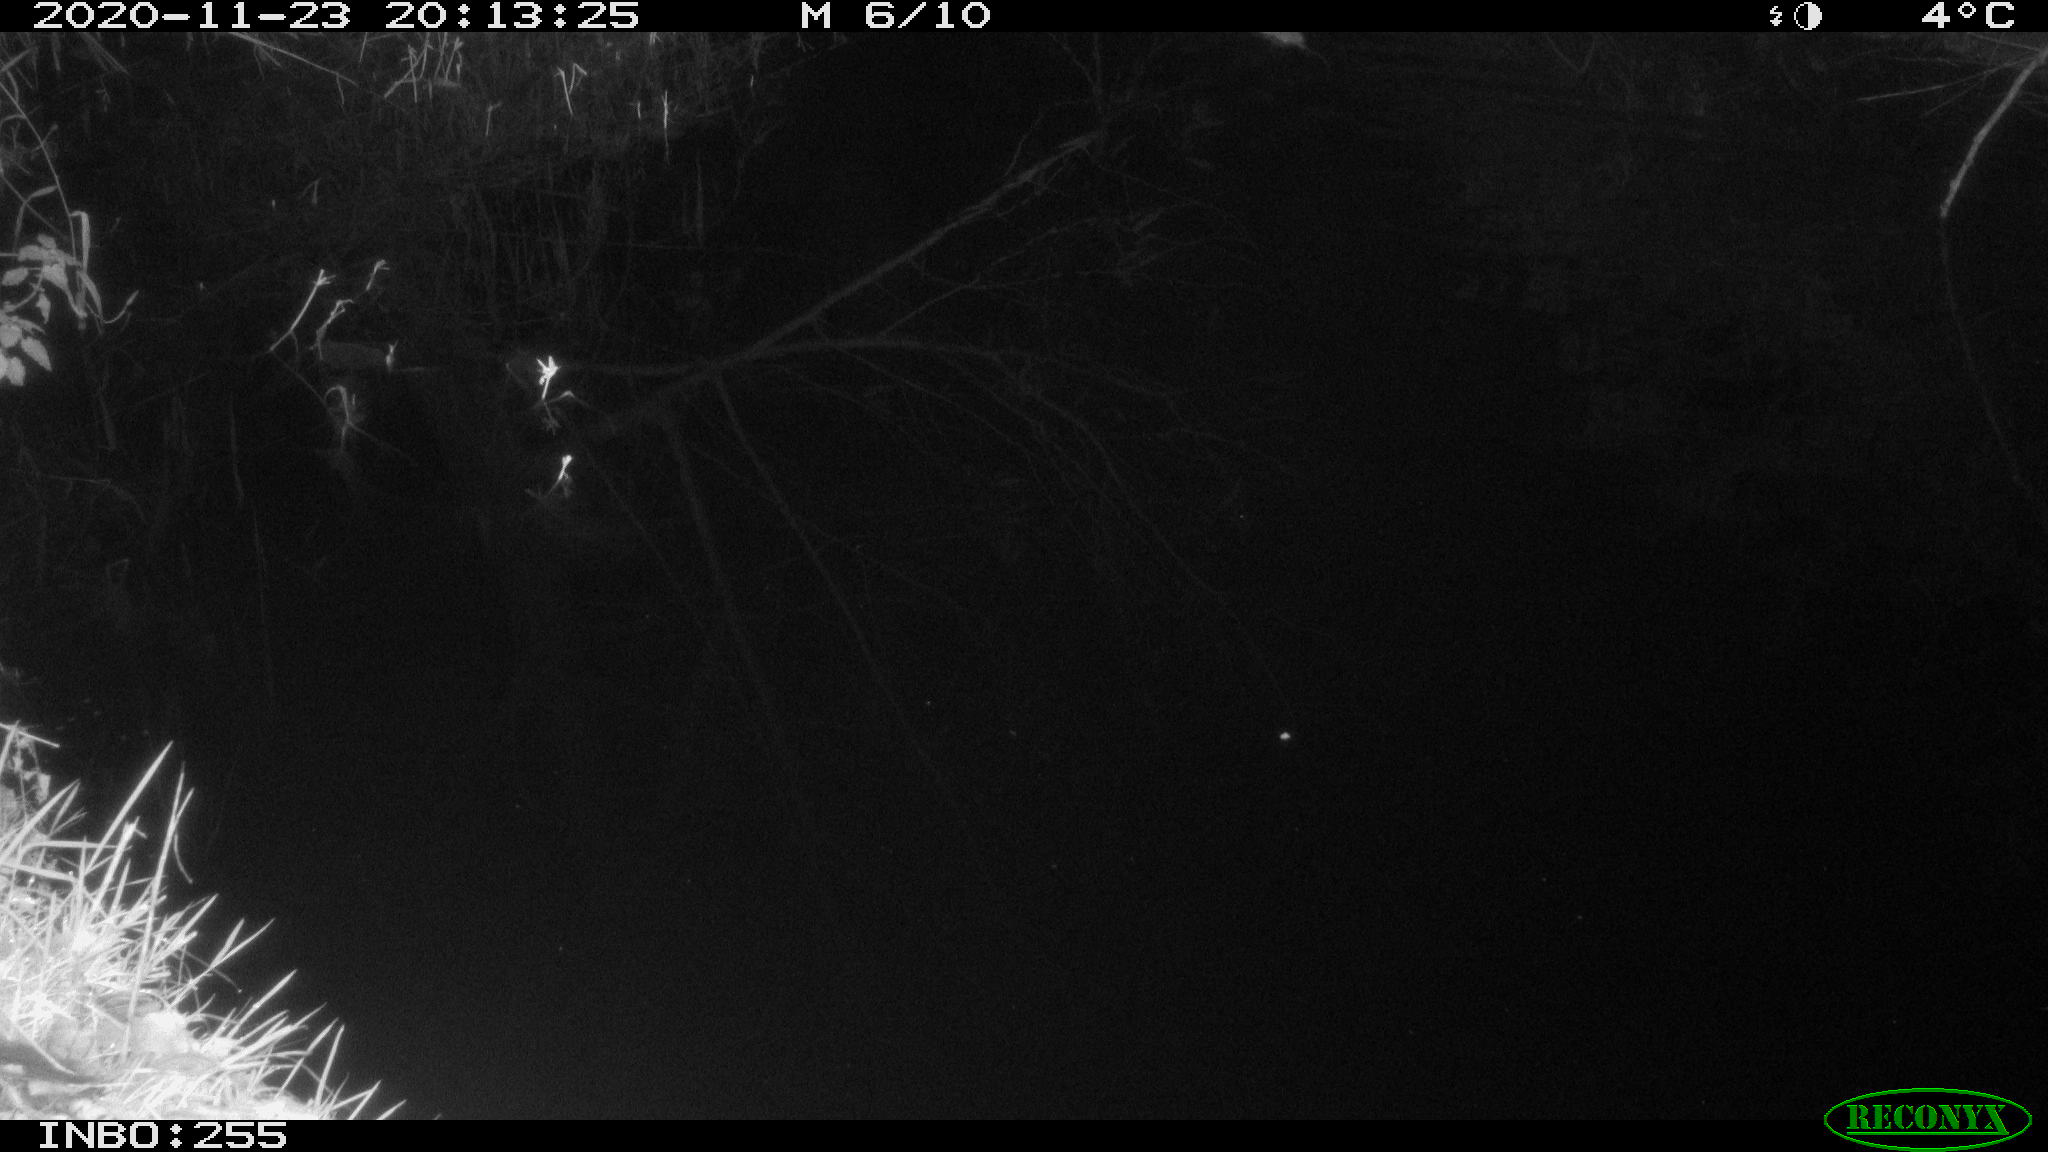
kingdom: Animalia
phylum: Chordata
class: Mammalia
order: Rodentia
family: Muridae
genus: Rattus
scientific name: Rattus norvegicus
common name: Brown rat
